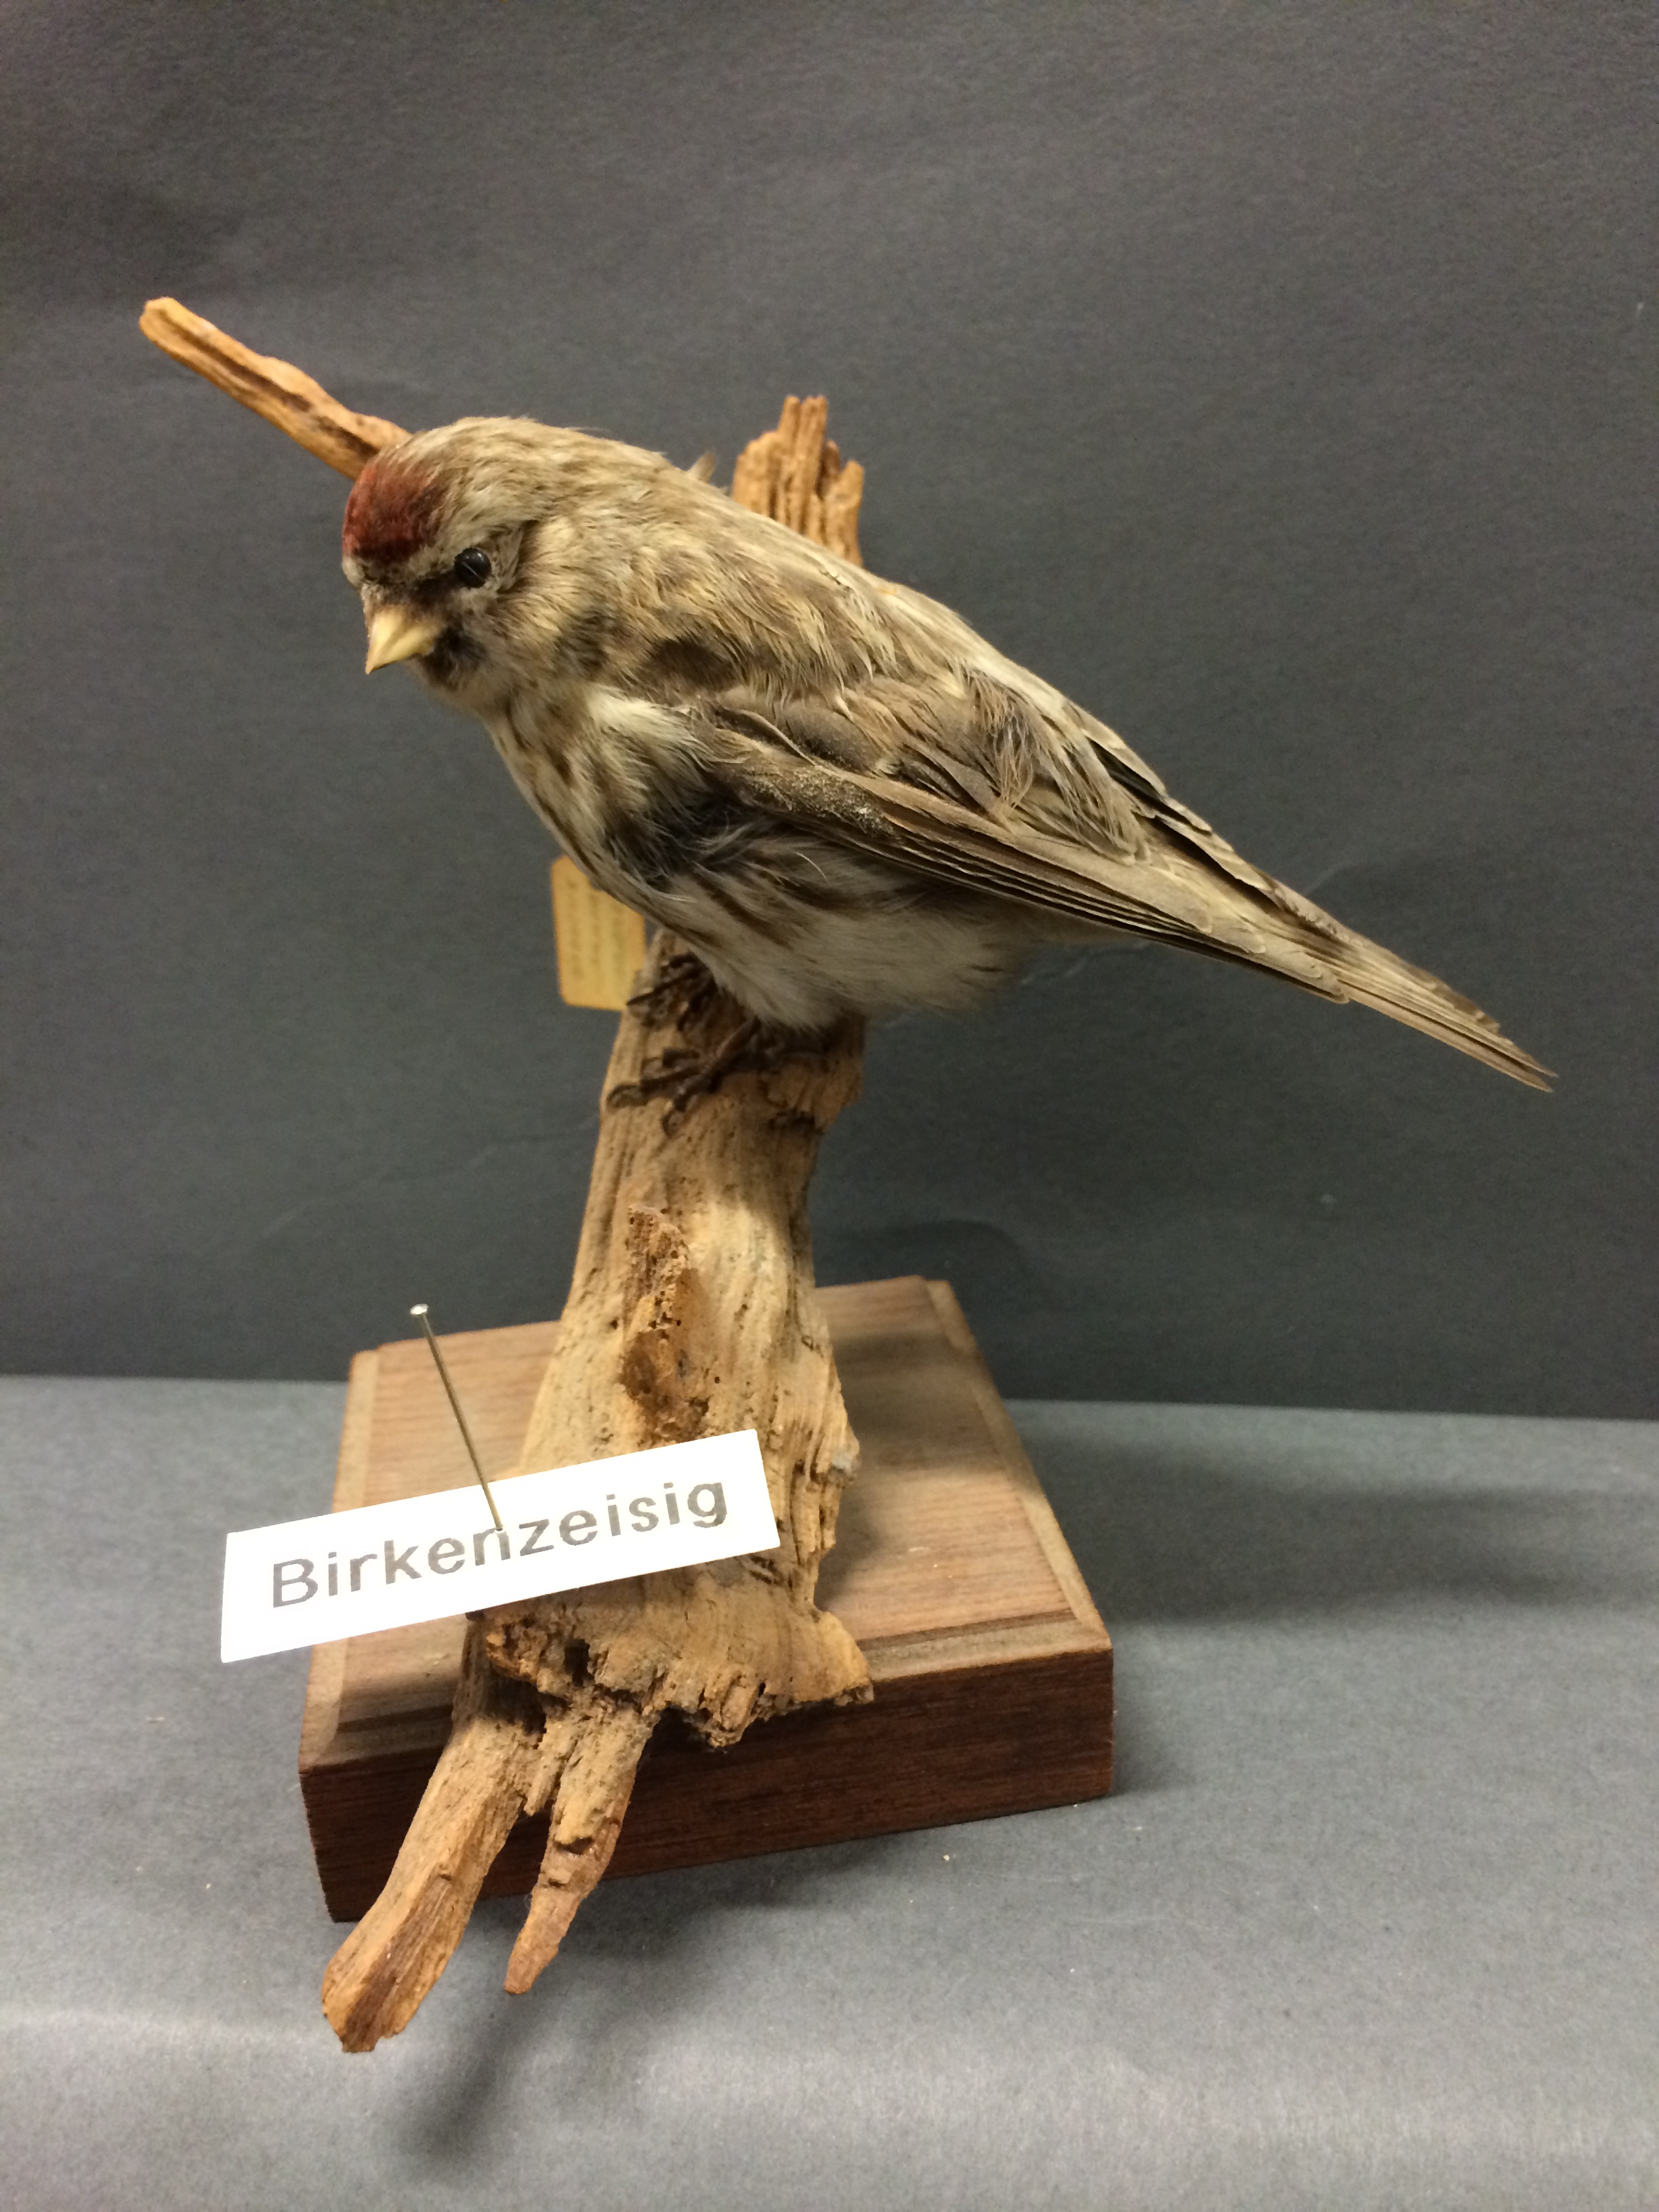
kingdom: Animalia
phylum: Chordata
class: Aves
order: Passeriformes
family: Fringillidae
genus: Acanthis
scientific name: Acanthis flammea
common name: Common redpoll
